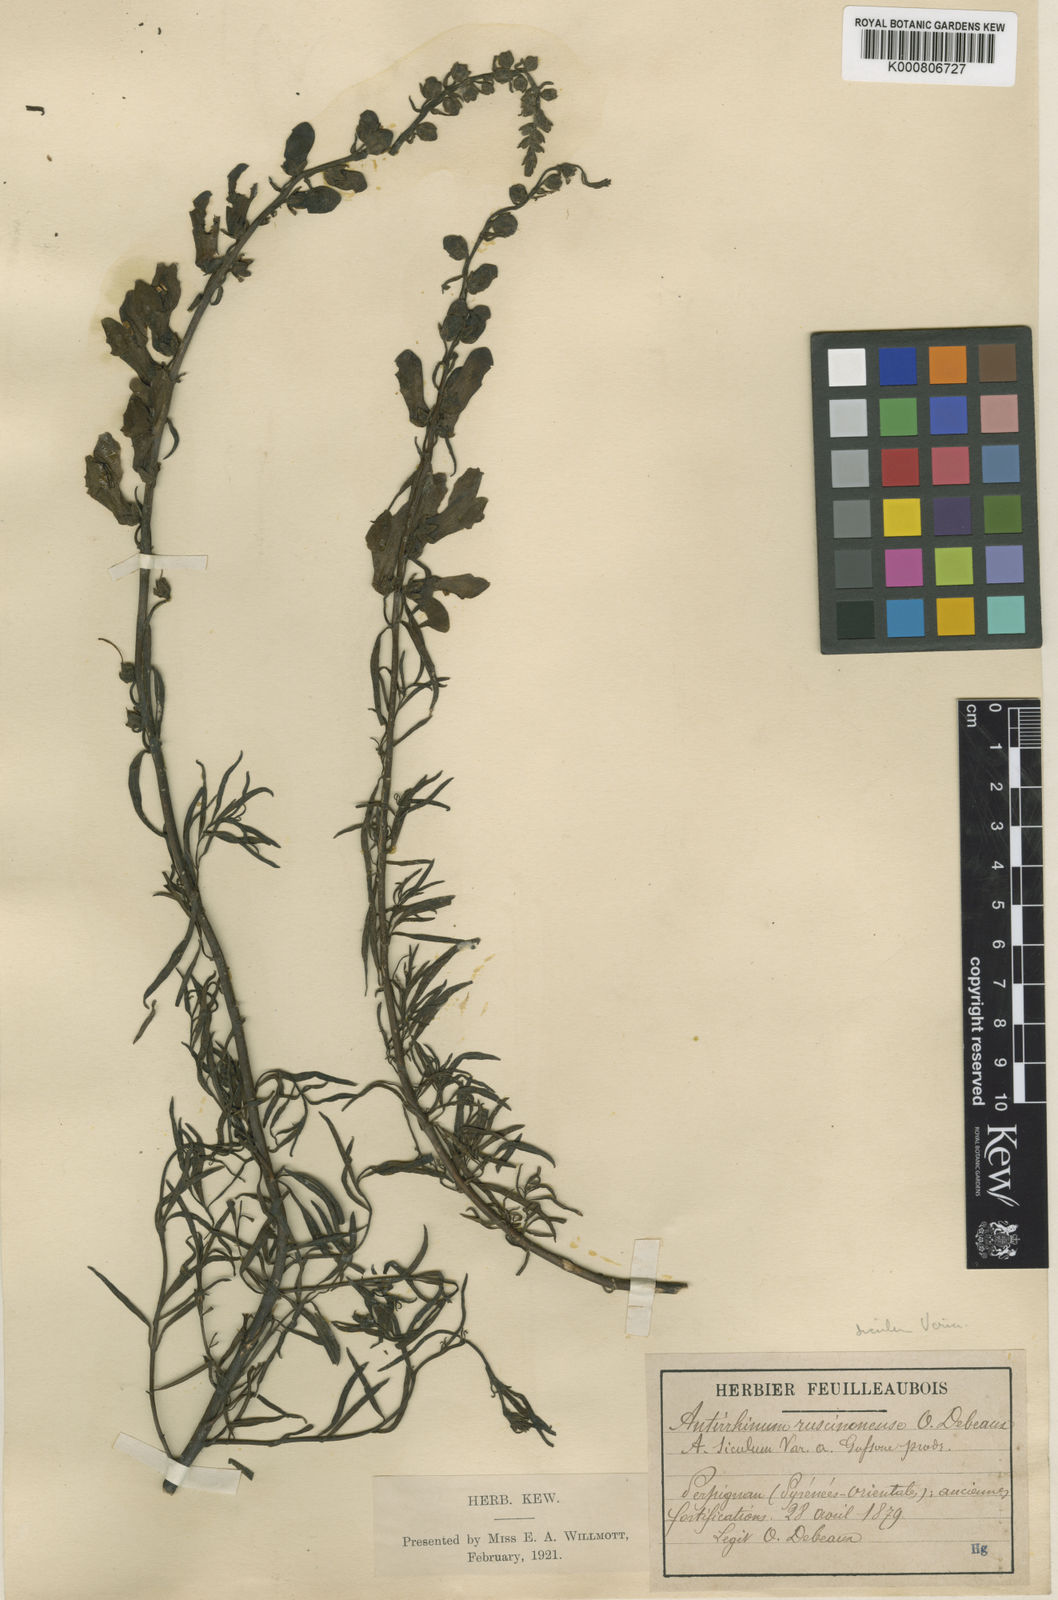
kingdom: Plantae
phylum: Tracheophyta
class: Magnoliopsida
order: Lamiales
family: Plantaginaceae
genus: Antirrhinum
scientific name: Antirrhinum siculum
